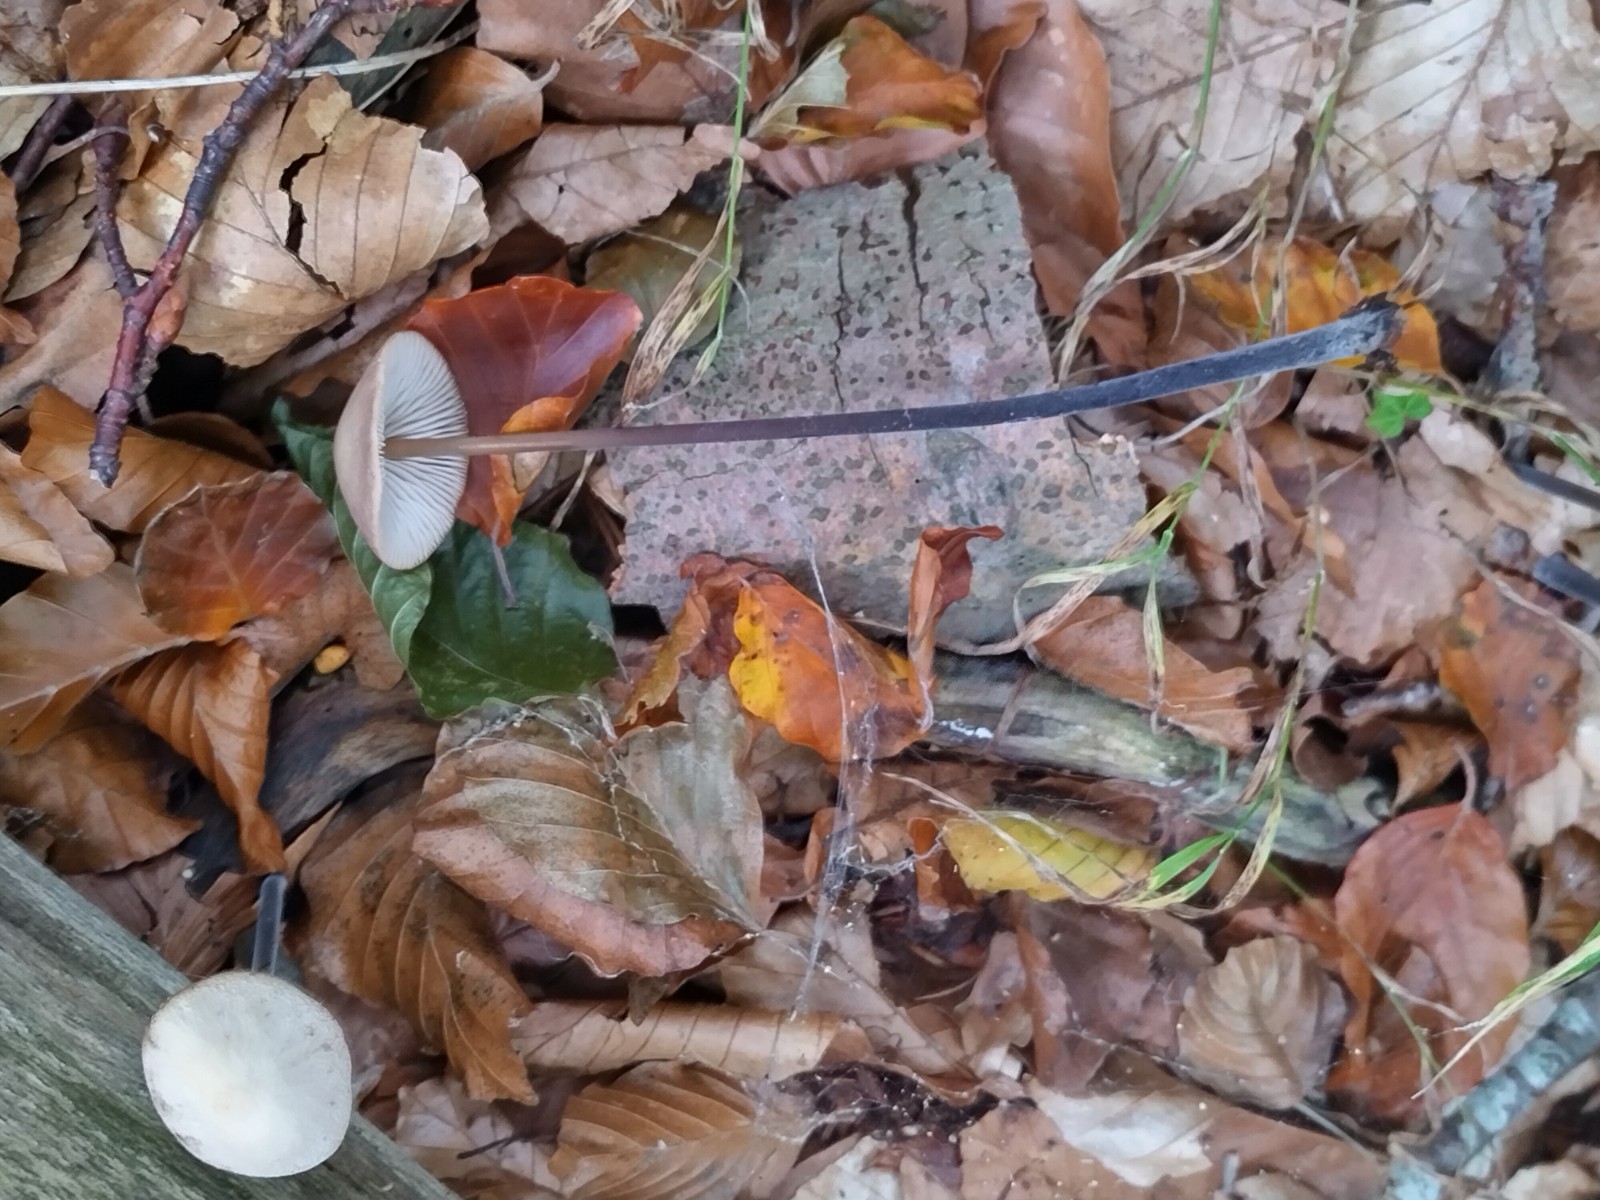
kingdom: Fungi
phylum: Basidiomycota
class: Agaricomycetes
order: Agaricales
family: Omphalotaceae
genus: Mycetinis
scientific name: Mycetinis alliaceus
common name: stor løghat
